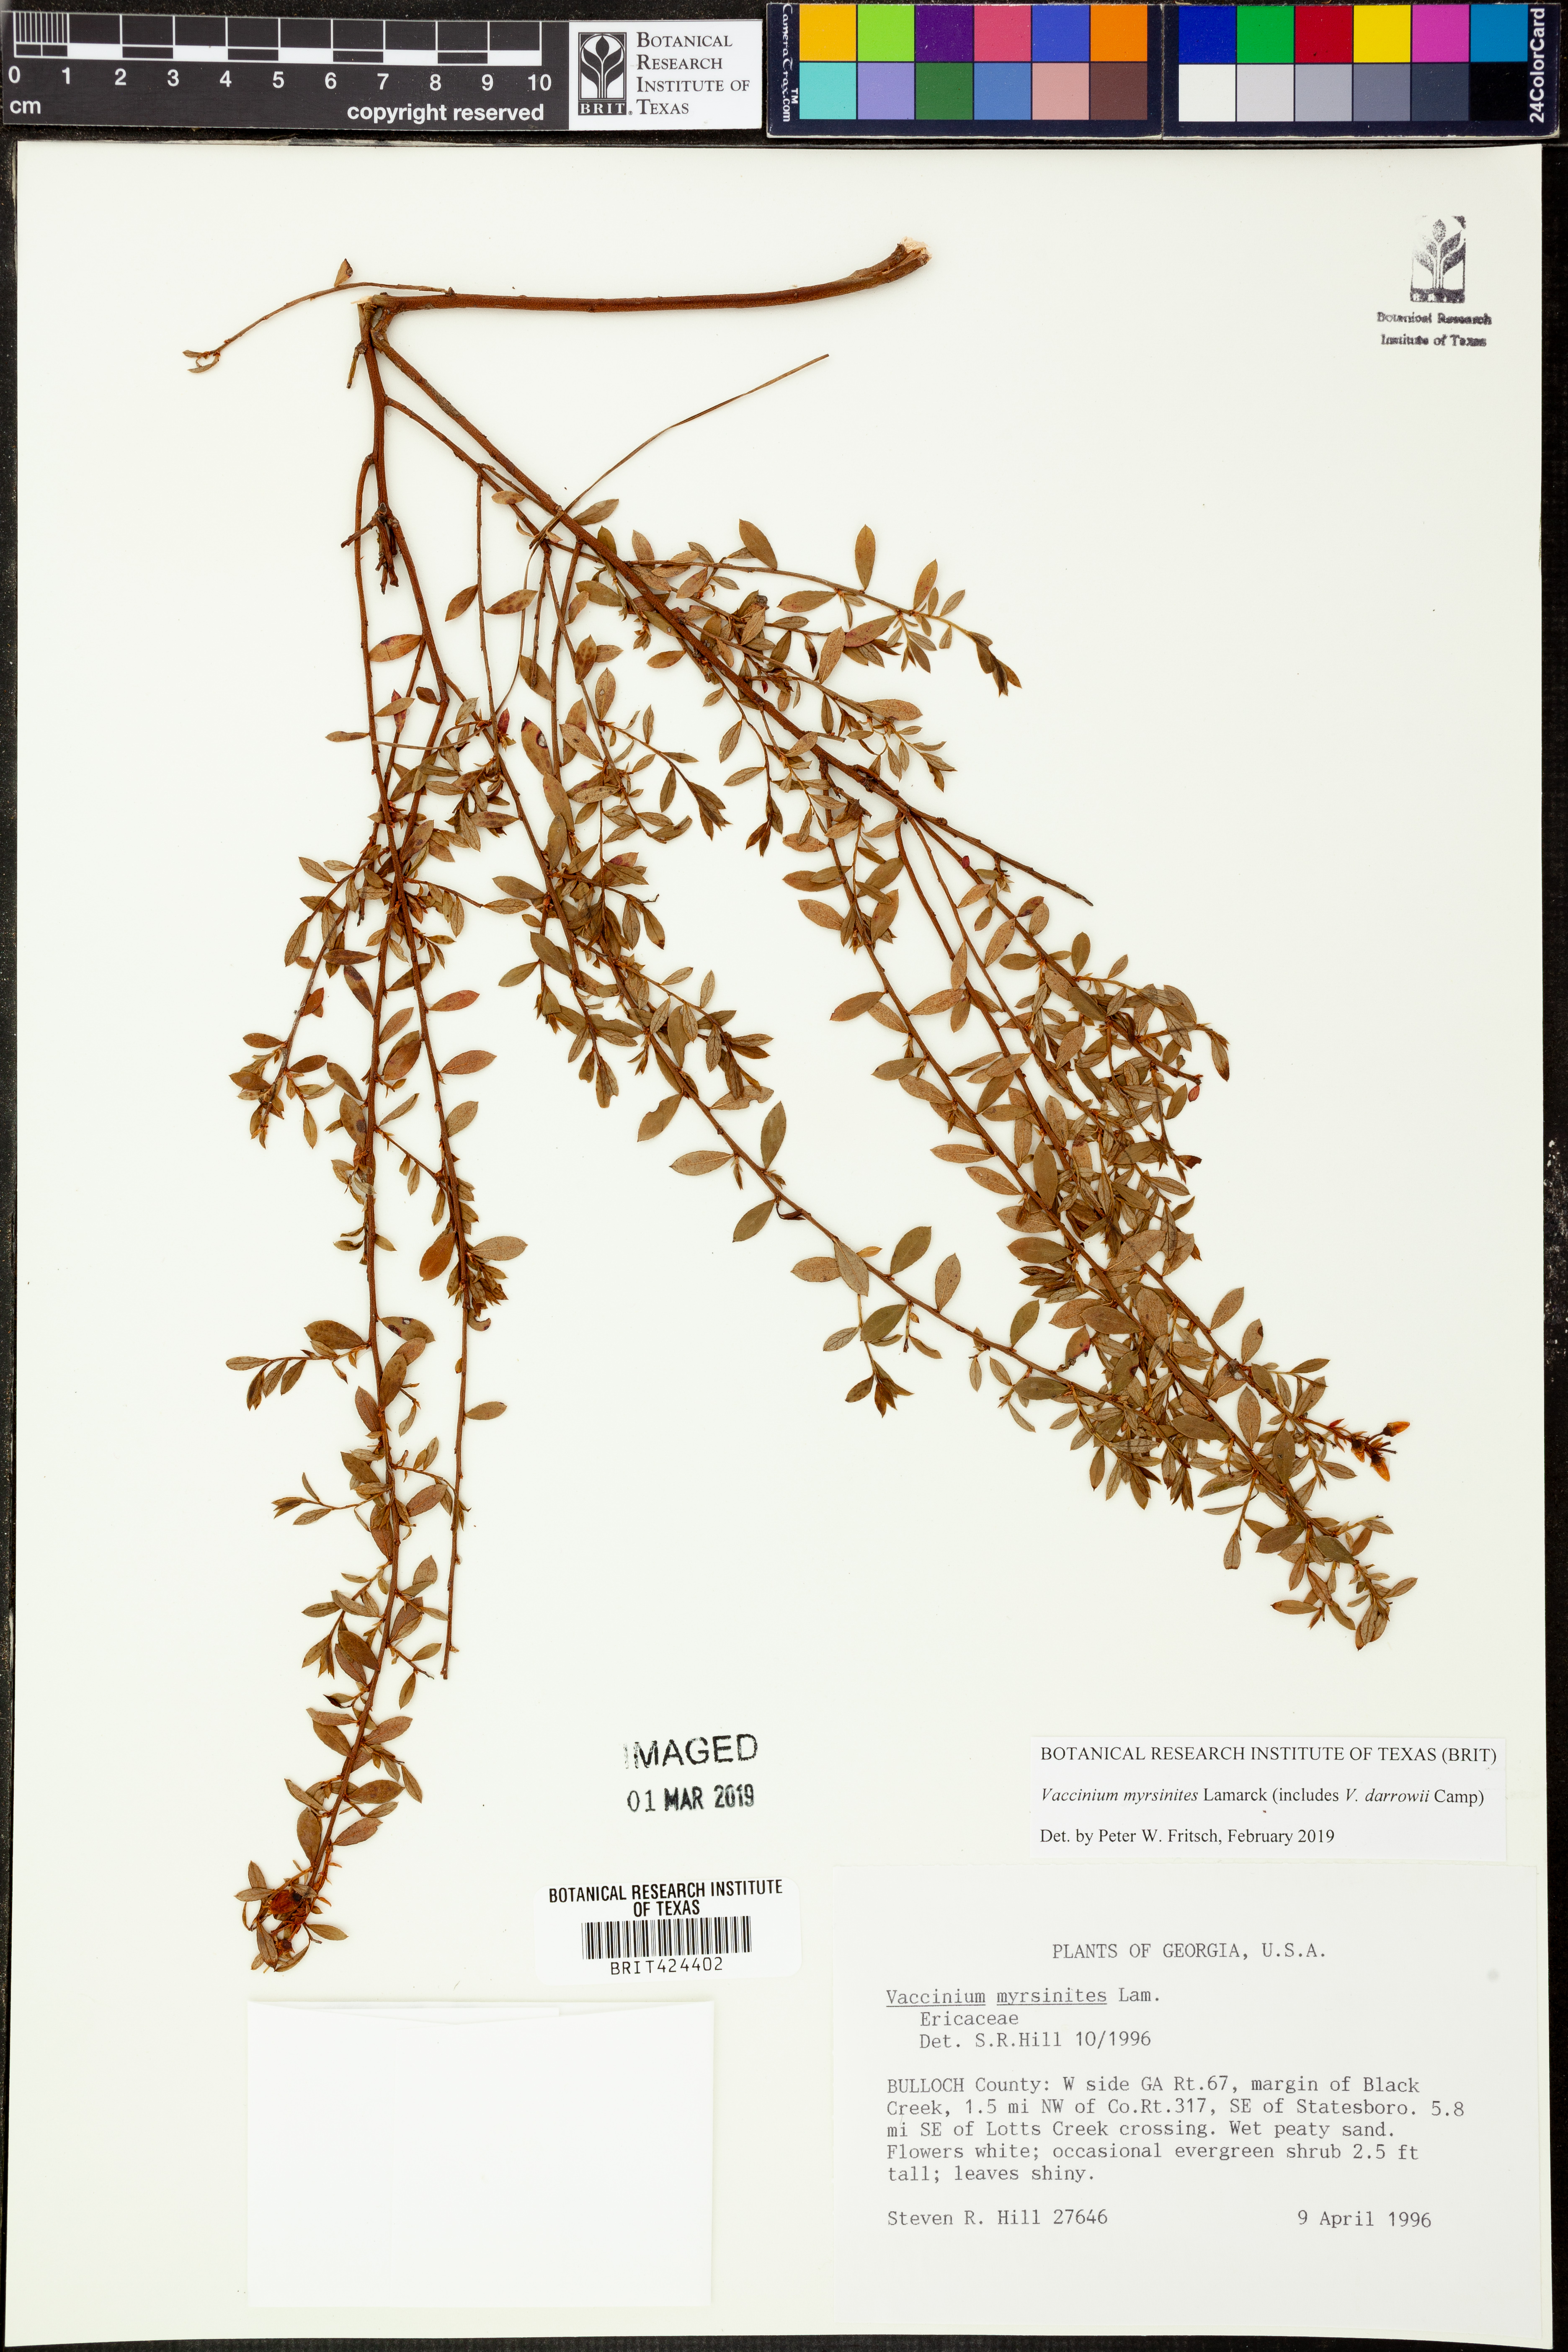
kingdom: Plantae
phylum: Tracheophyta
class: Magnoliopsida
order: Ericales
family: Ericaceae
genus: Vaccinium
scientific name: Vaccinium myrsinites
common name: Evergreen blueberry
